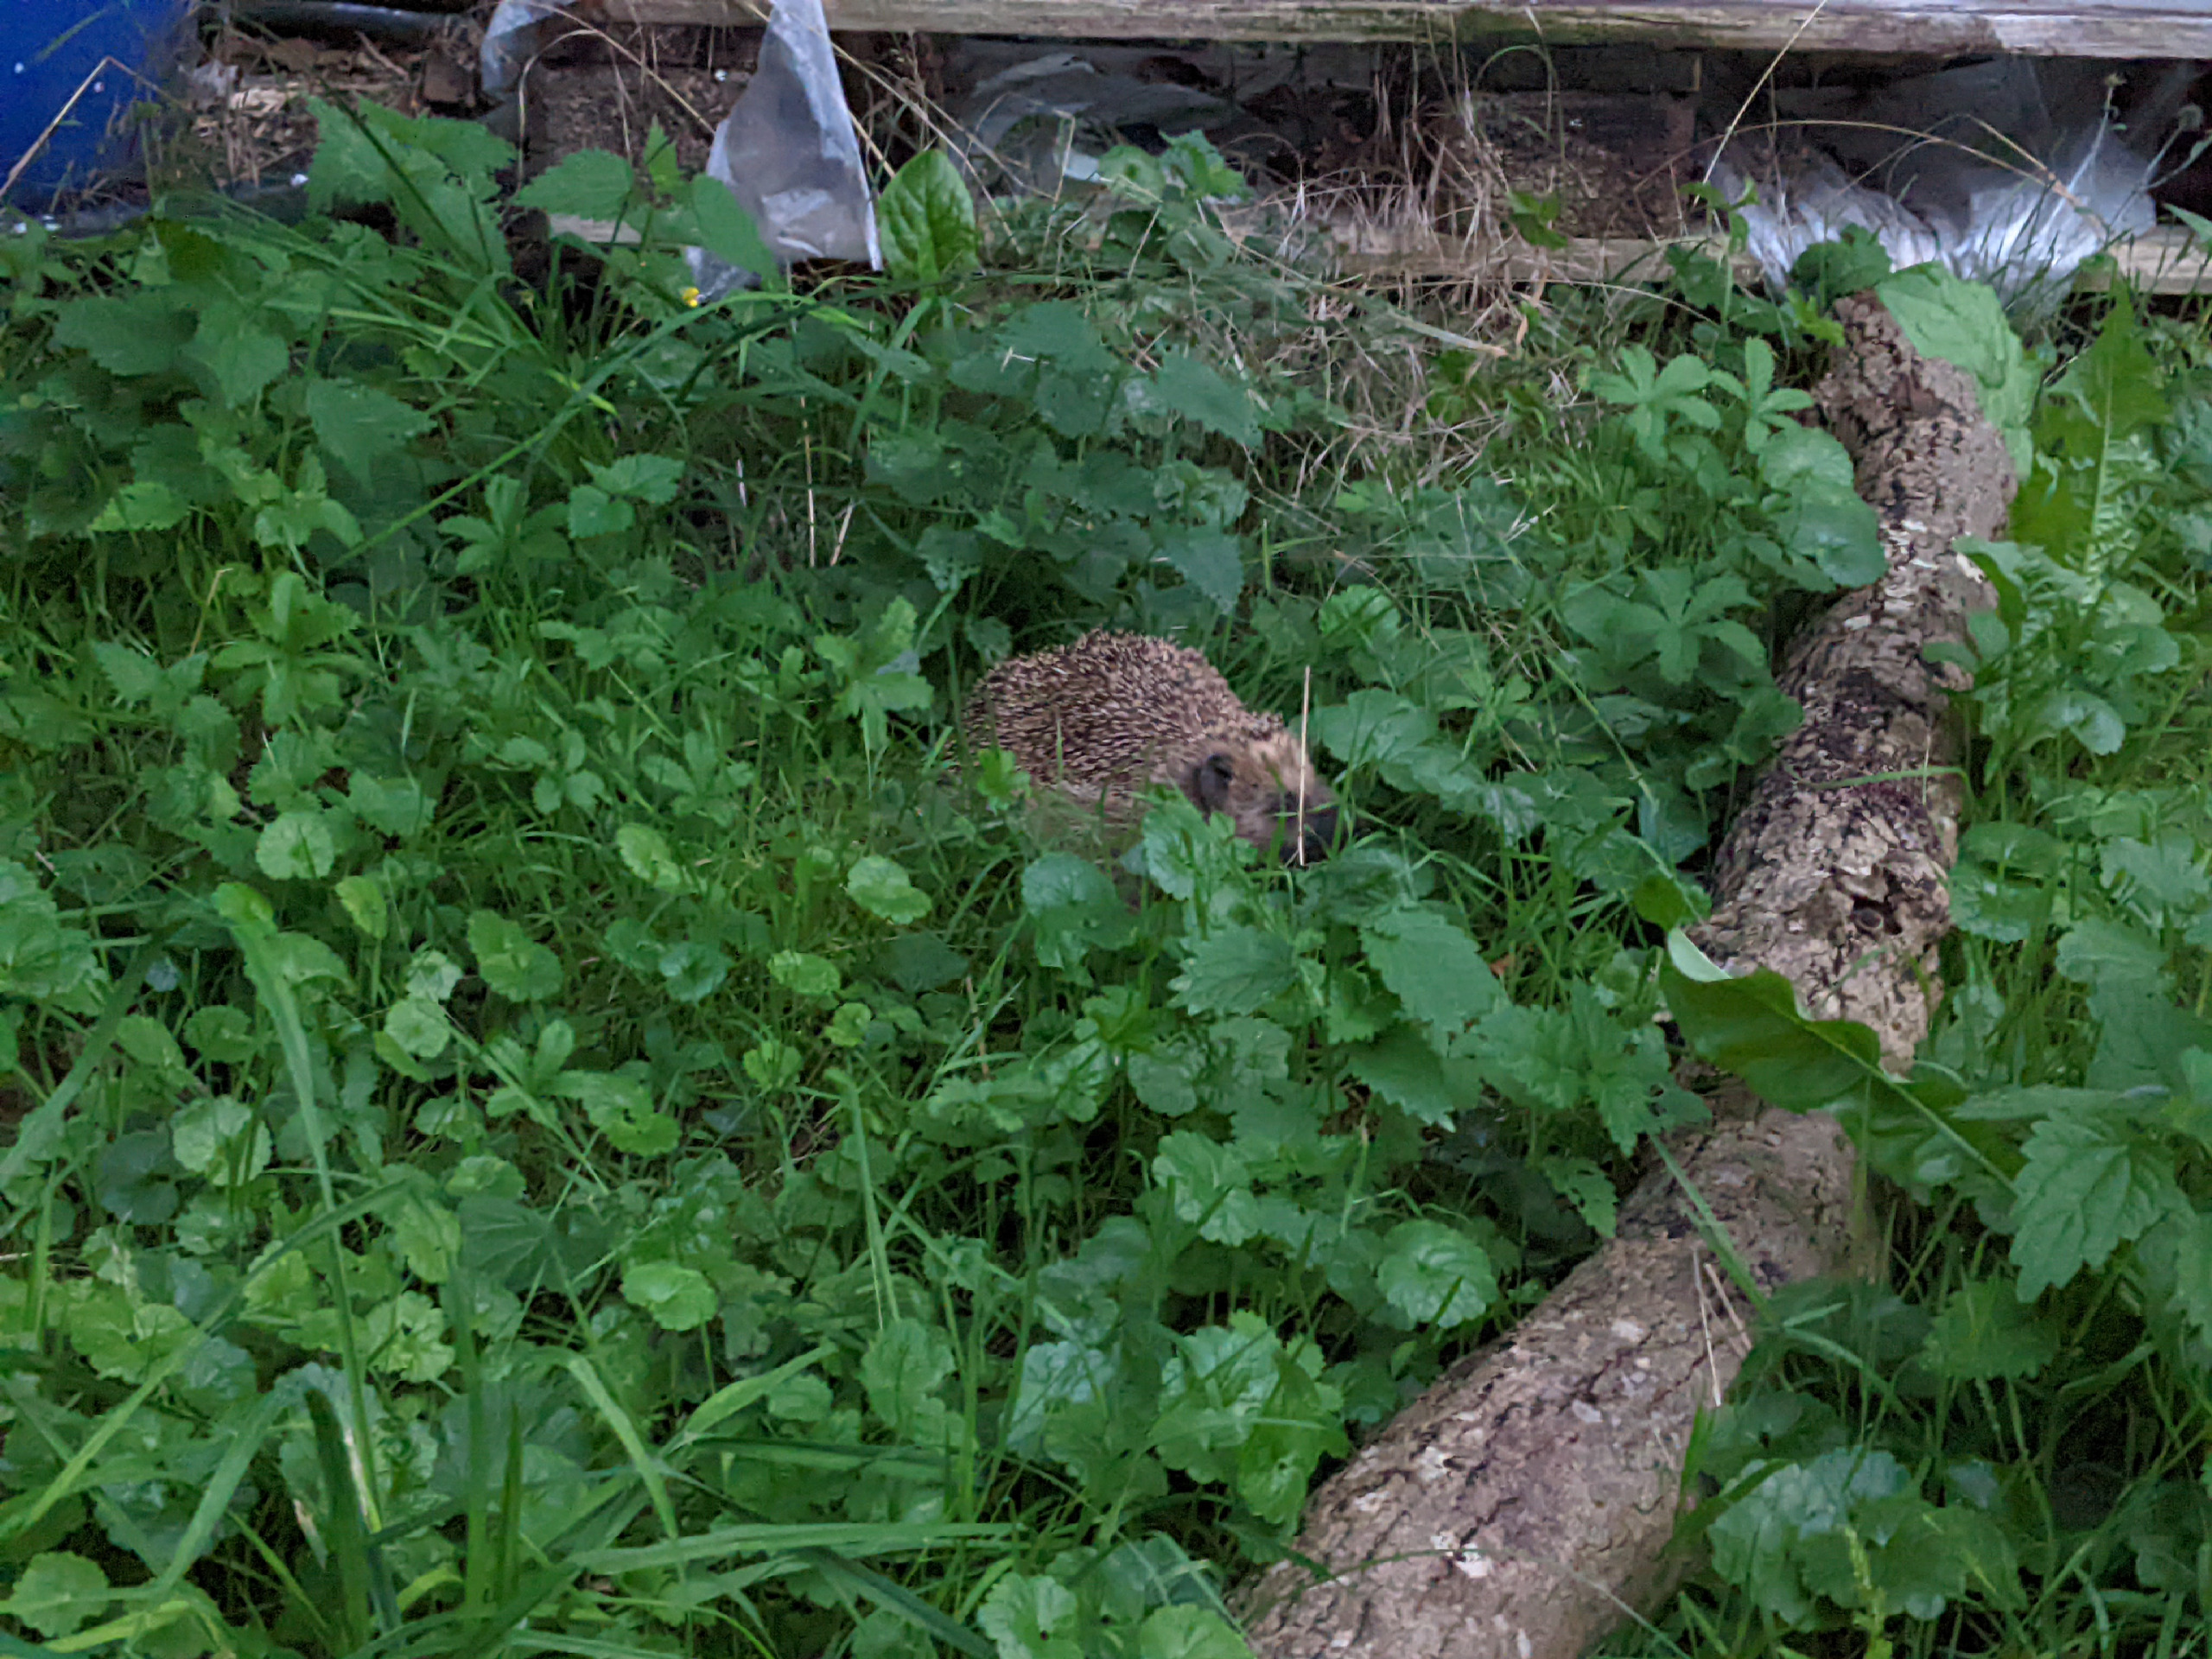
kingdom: Animalia
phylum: Chordata
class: Mammalia
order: Erinaceomorpha
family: Erinaceidae
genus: Erinaceus
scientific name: Erinaceus europaeus
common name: Pindsvin
